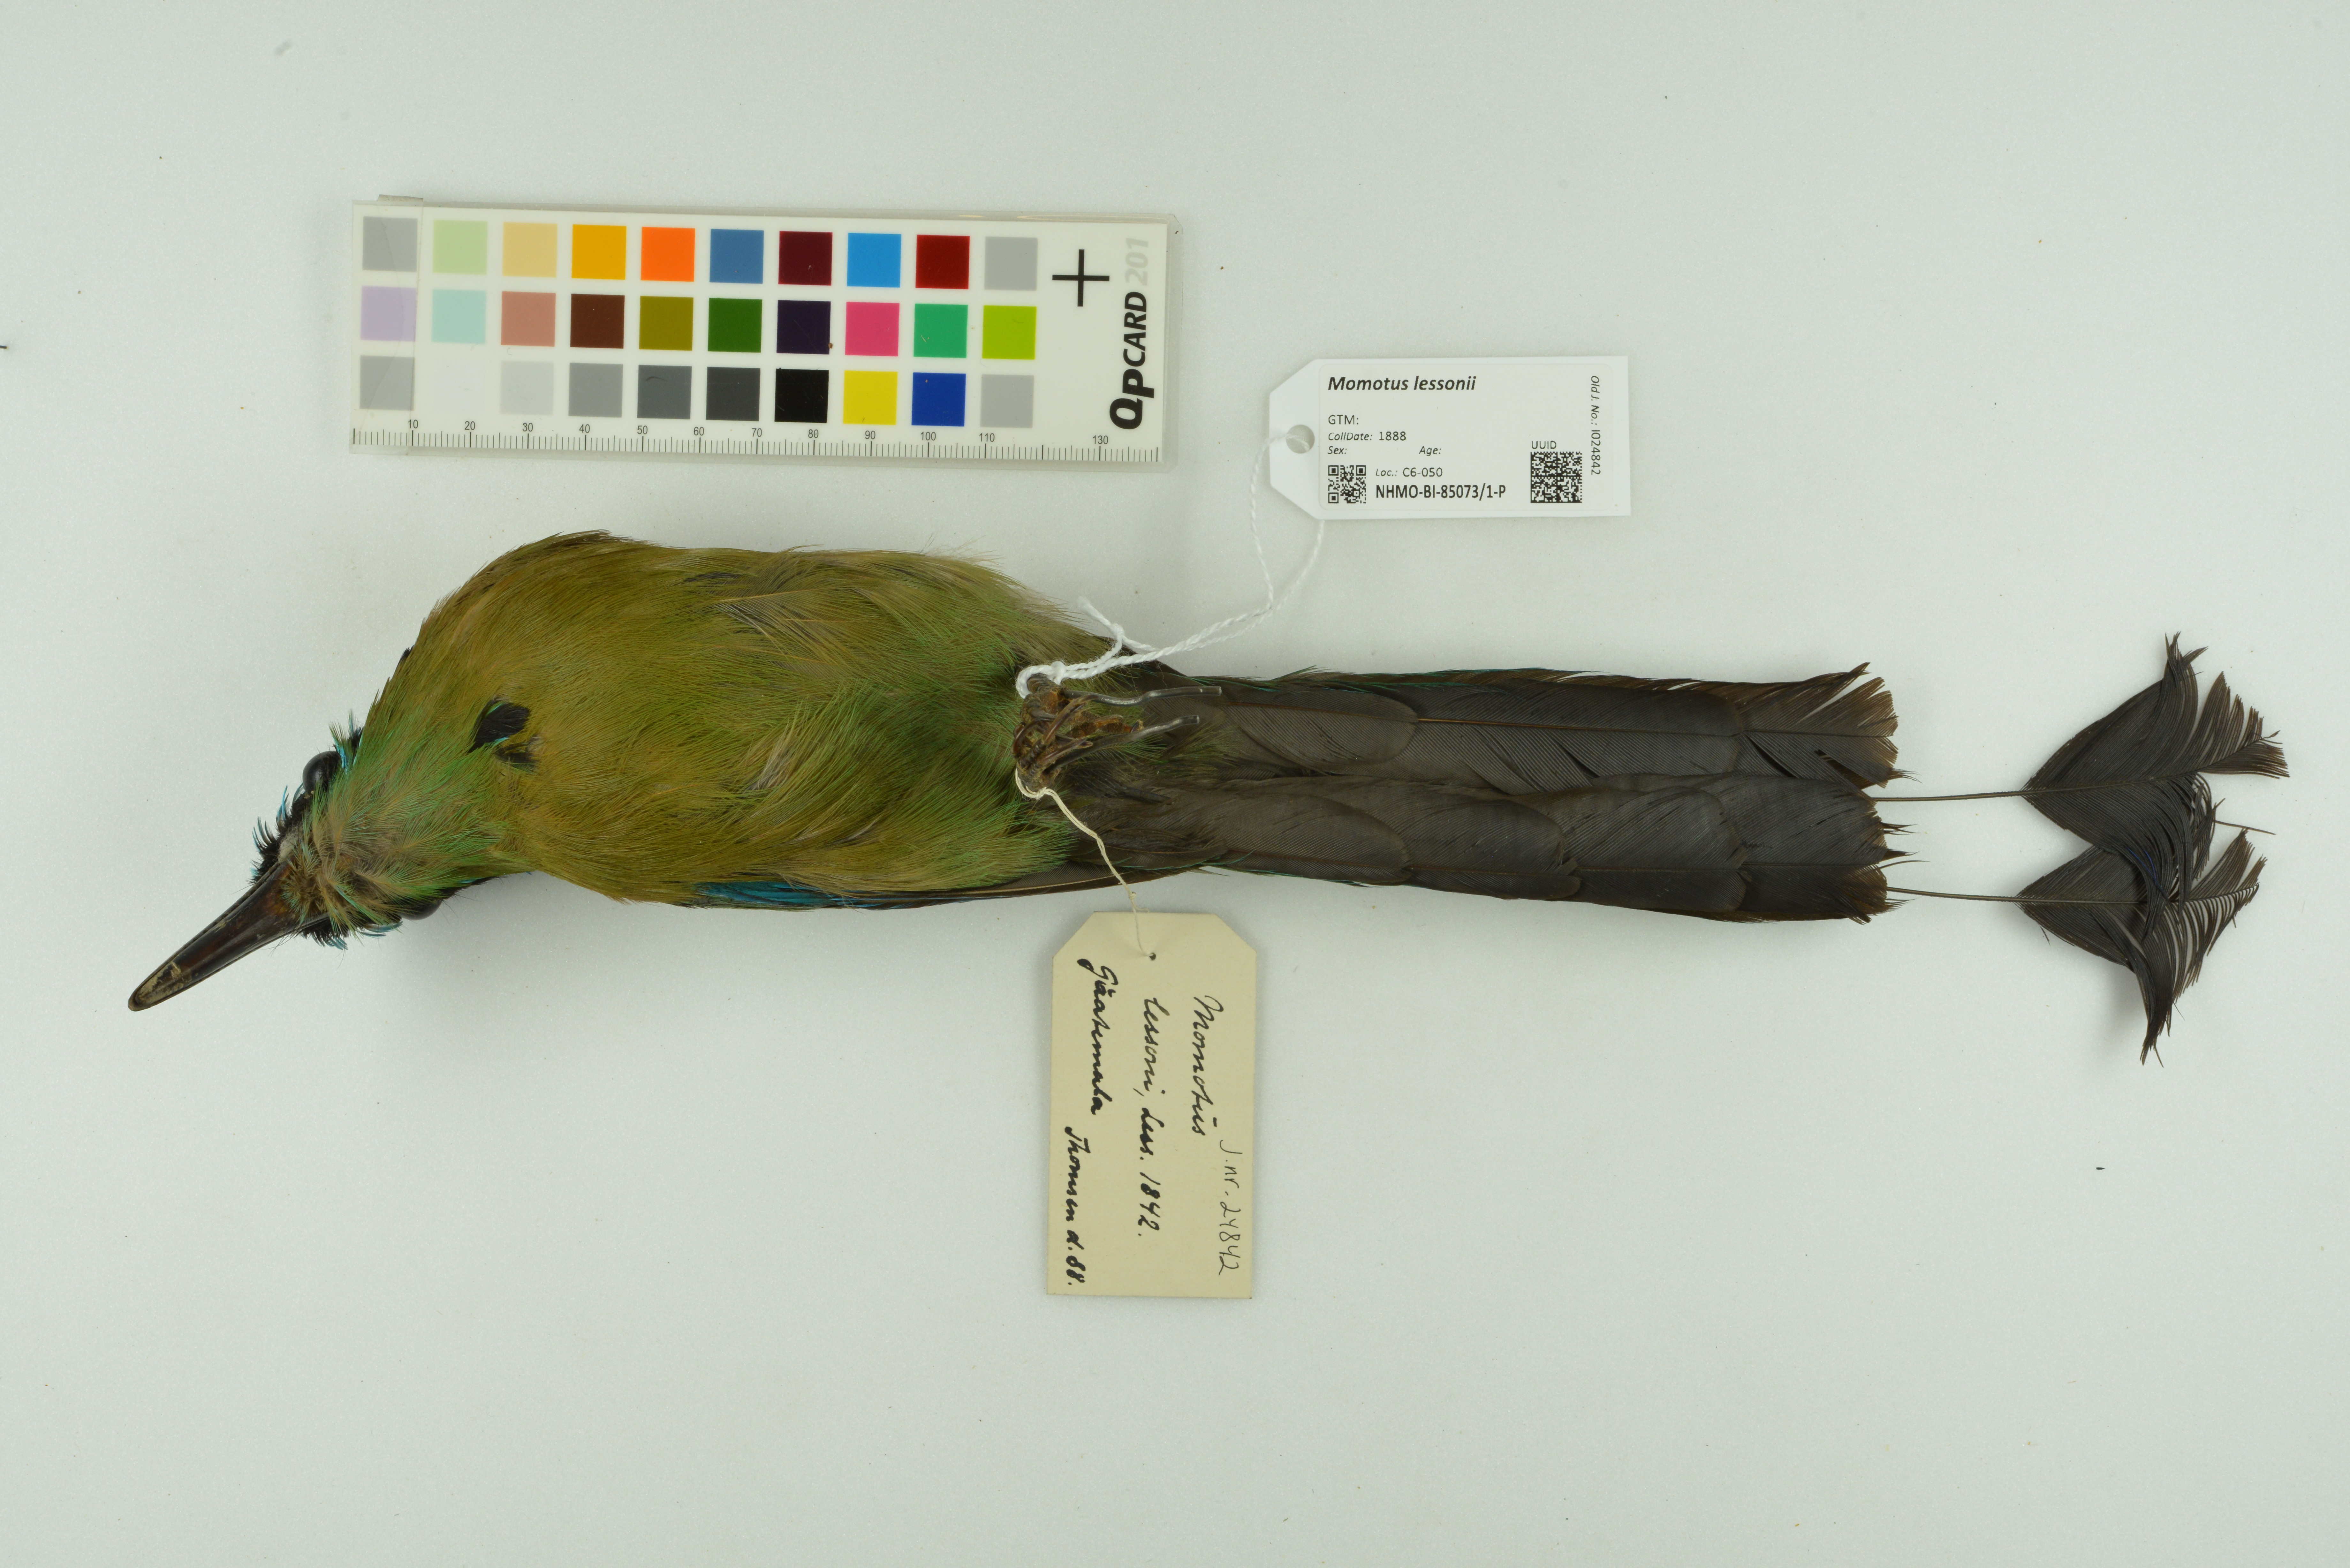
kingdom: Animalia
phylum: Chordata
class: Aves
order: Coraciiformes
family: Momotidae
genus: Momotus
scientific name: Momotus lessonii
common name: Lesson's motmot
